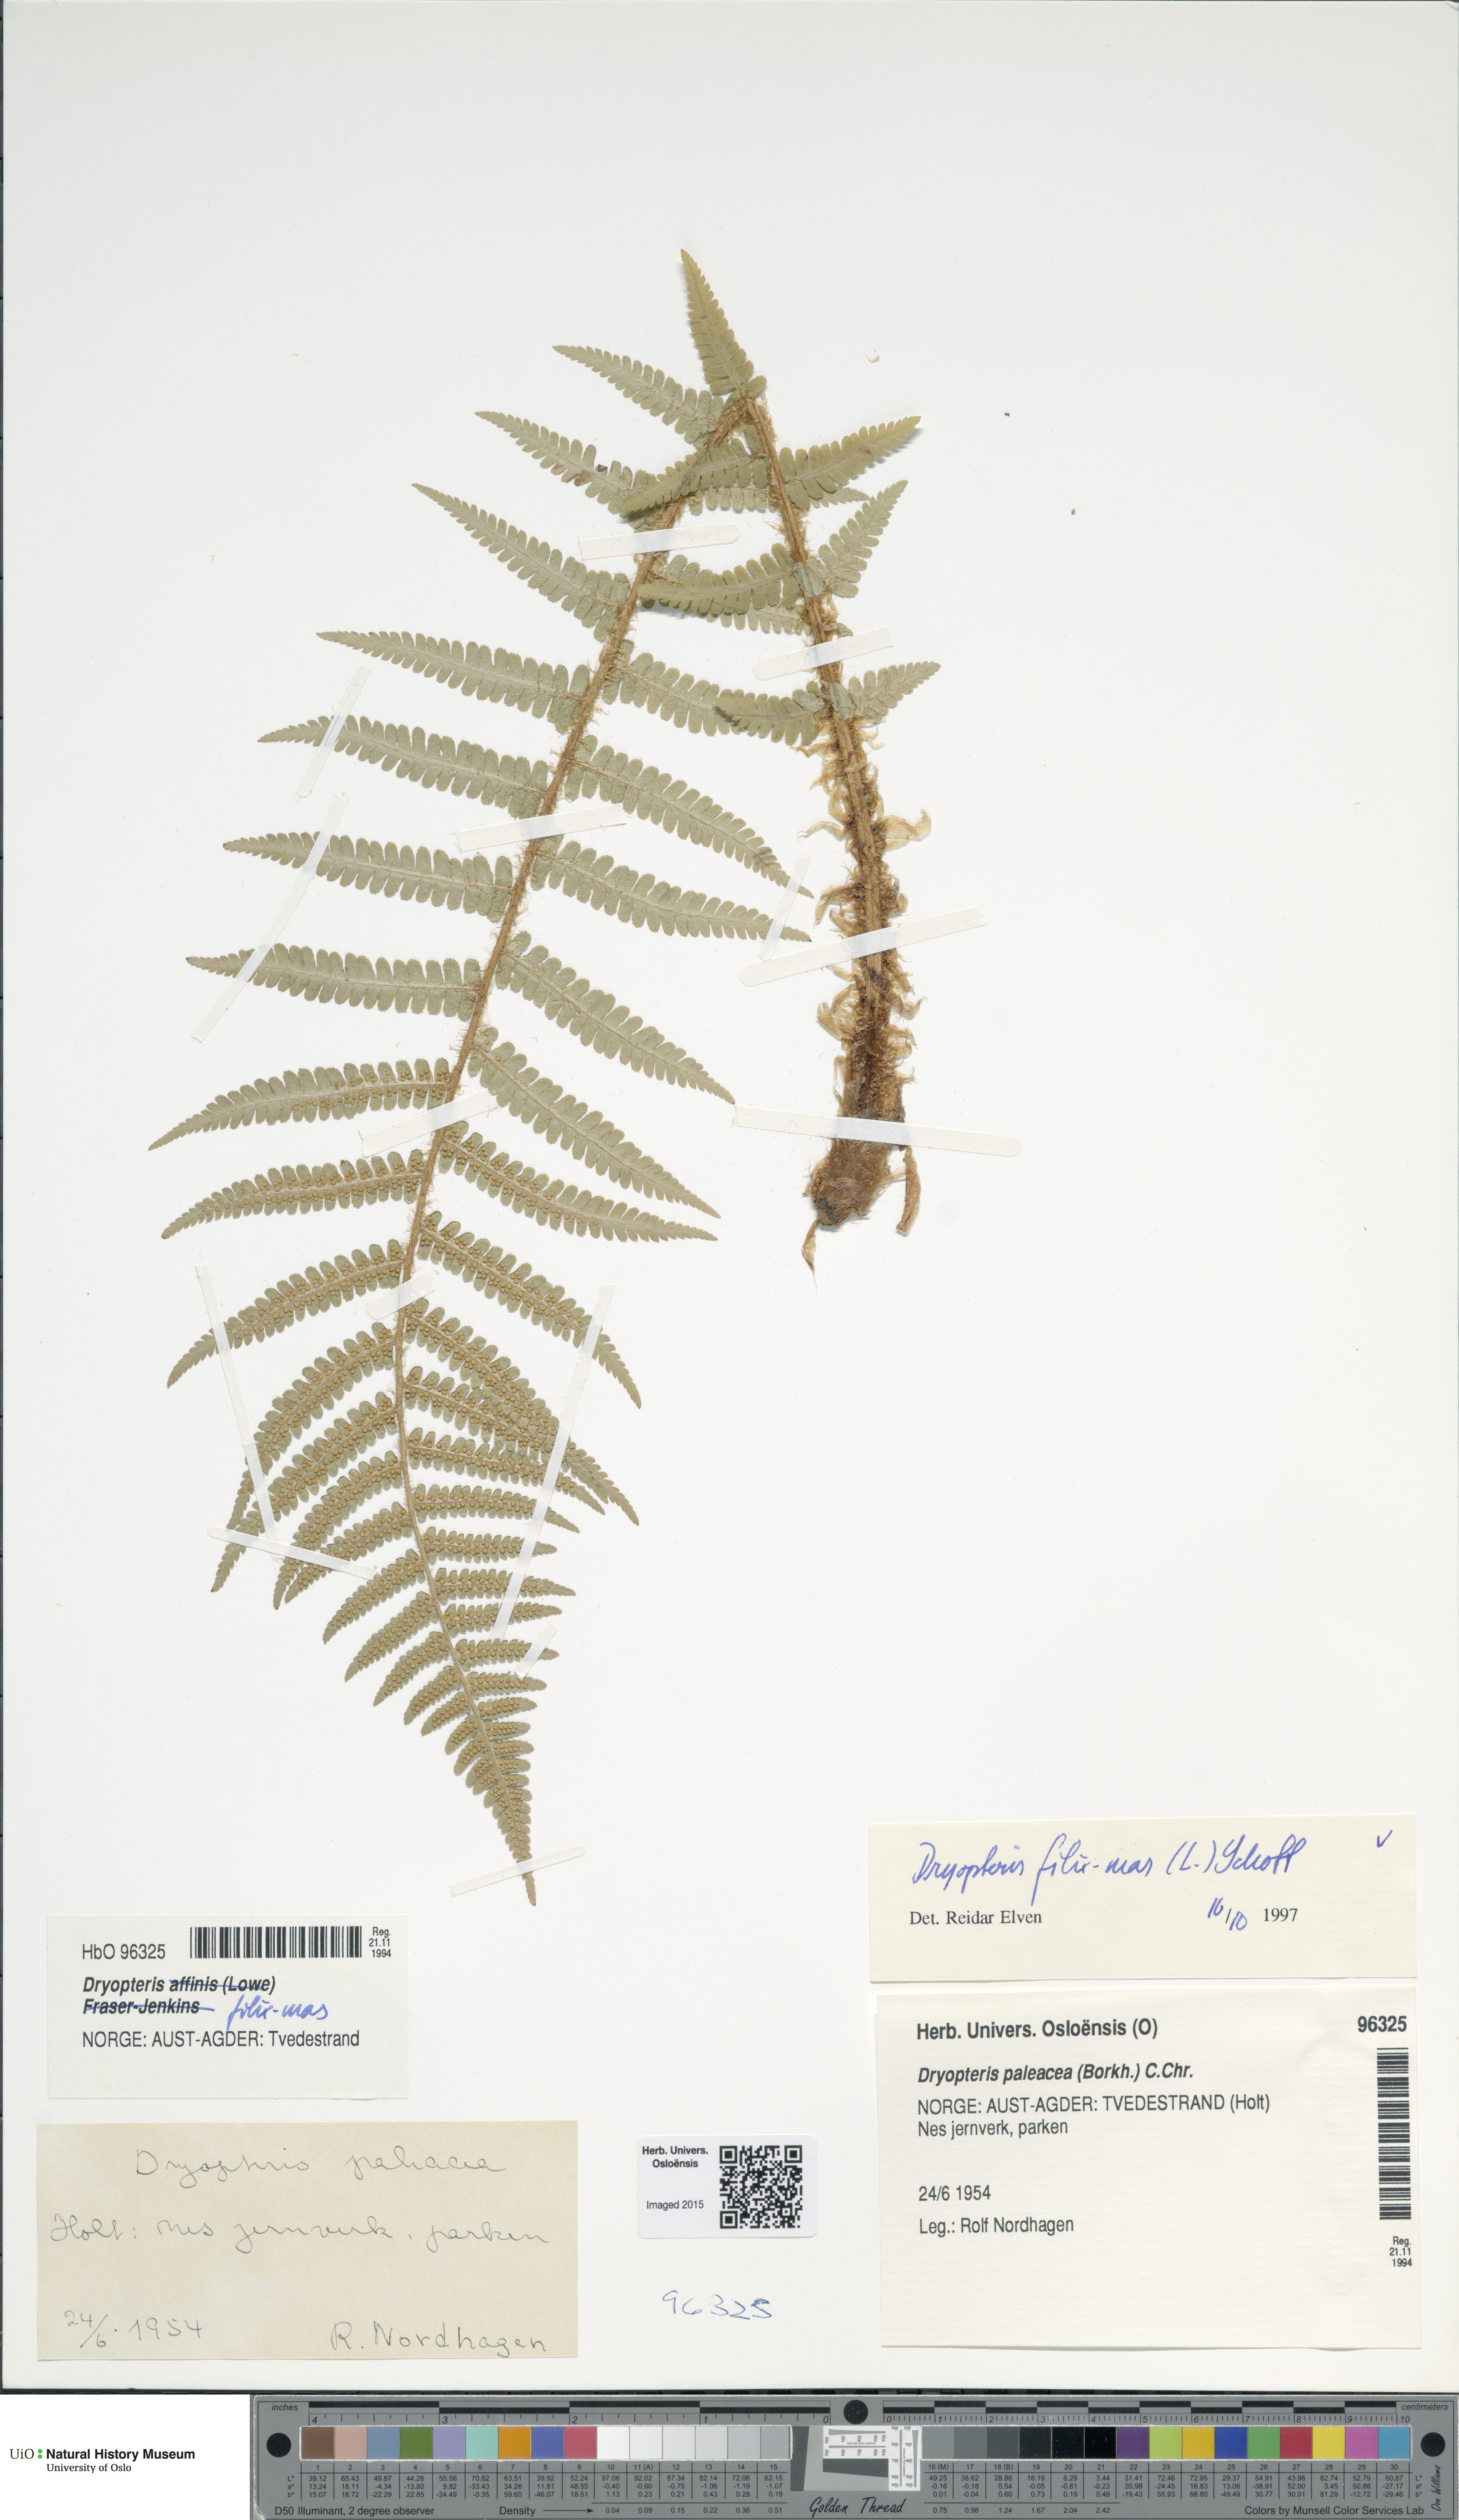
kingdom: Plantae
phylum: Tracheophyta
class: Polypodiopsida
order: Polypodiales
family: Dryopteridaceae
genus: Dryopteris
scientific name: Dryopteris filix-mas
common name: Male fern
